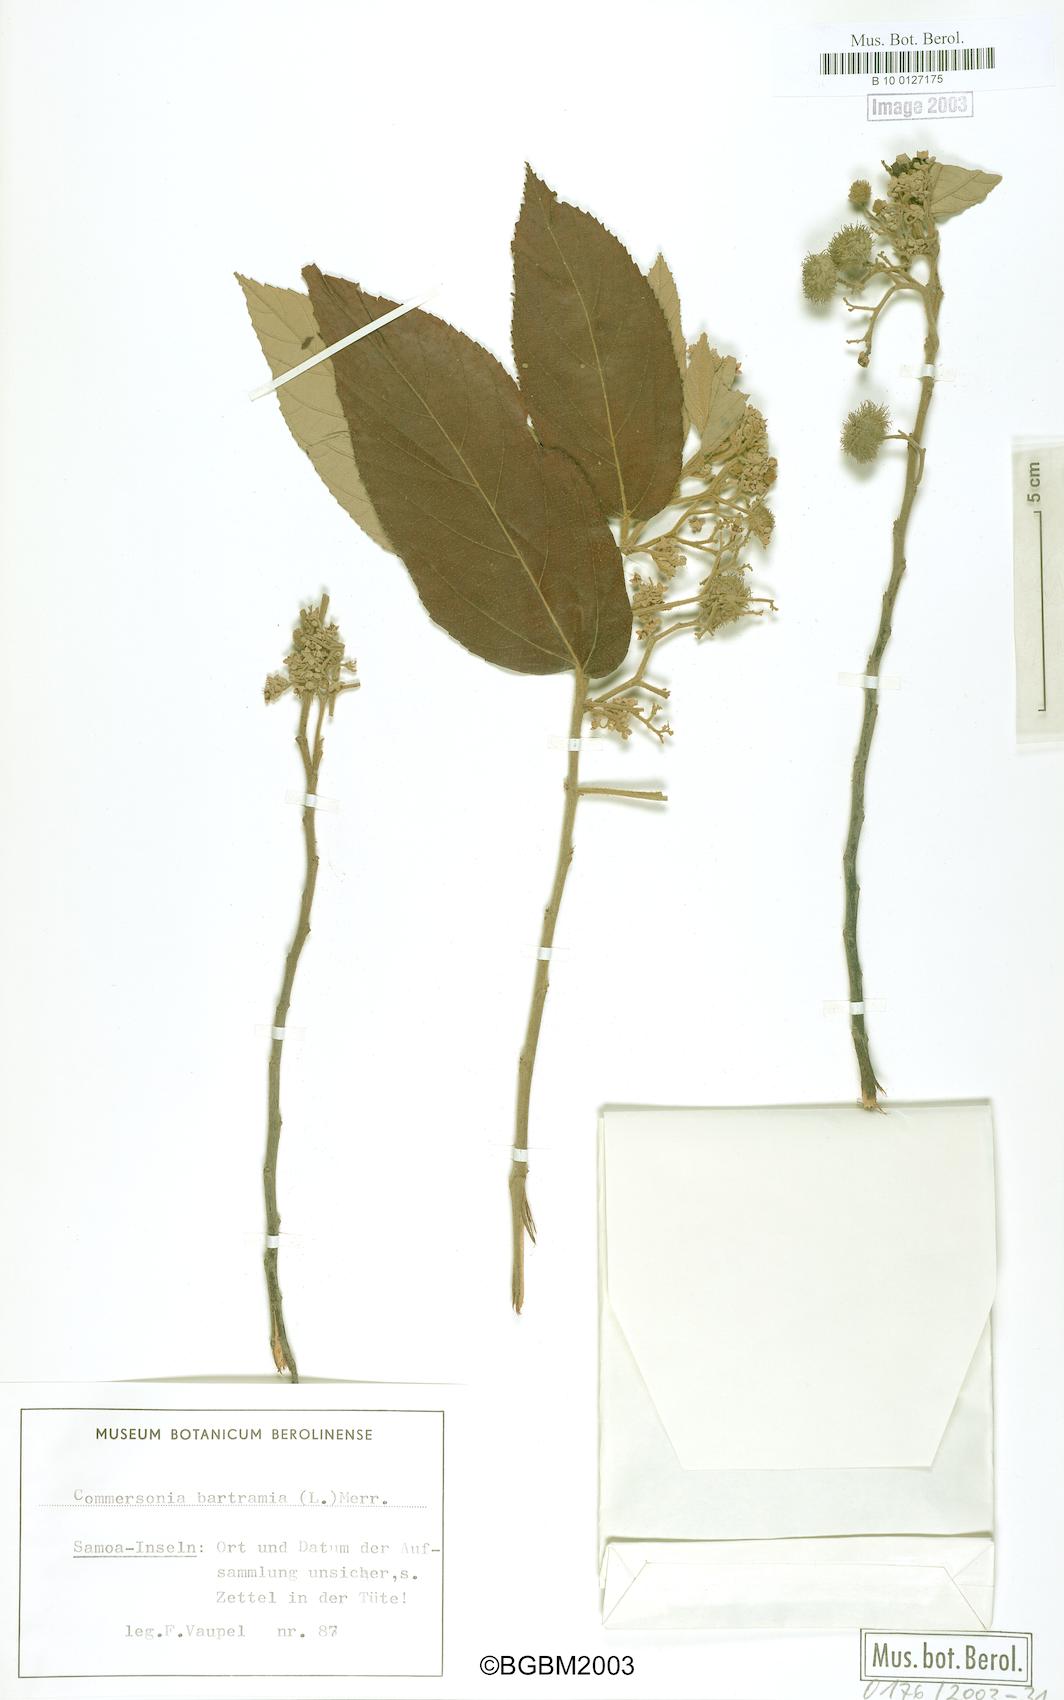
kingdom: Plantae
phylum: Tracheophyta
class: Magnoliopsida
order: Malvales
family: Malvaceae
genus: Commersonia
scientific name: Commersonia bartramia
